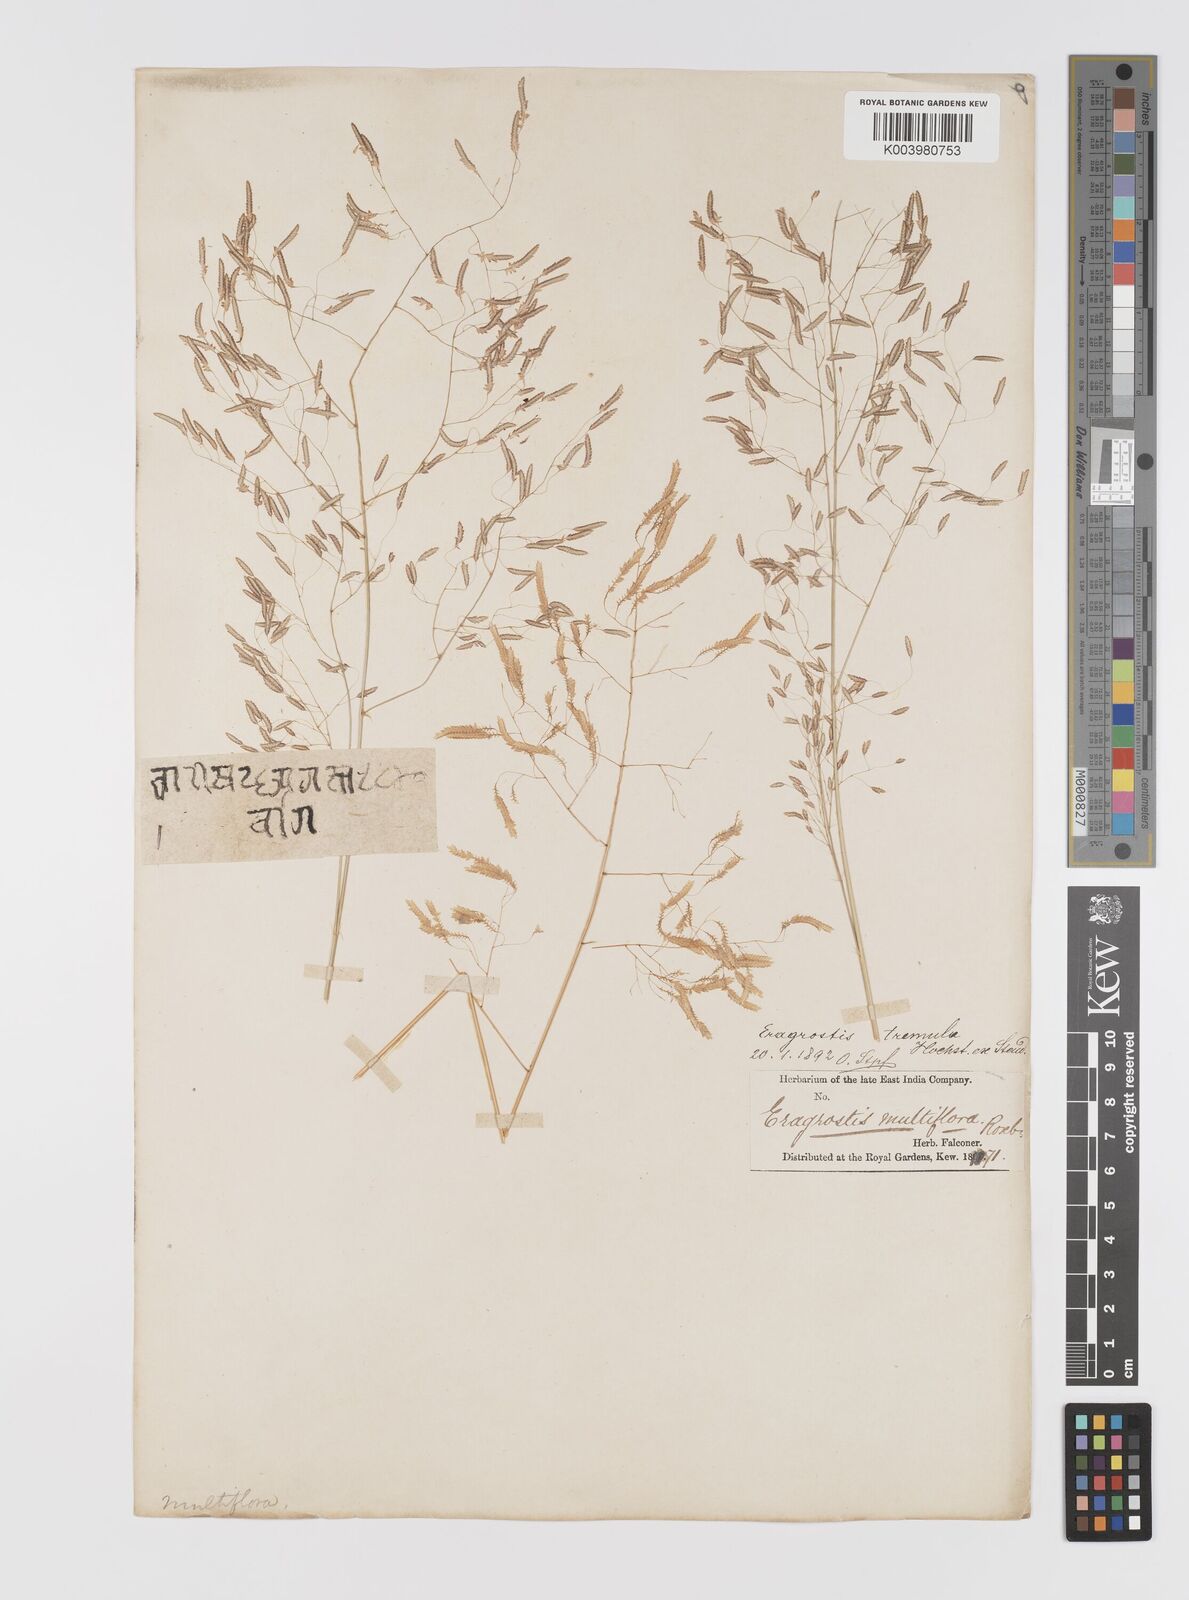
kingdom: Plantae
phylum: Tracheophyta
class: Liliopsida
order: Poales
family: Poaceae
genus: Eragrostis
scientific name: Eragrostis tremula
